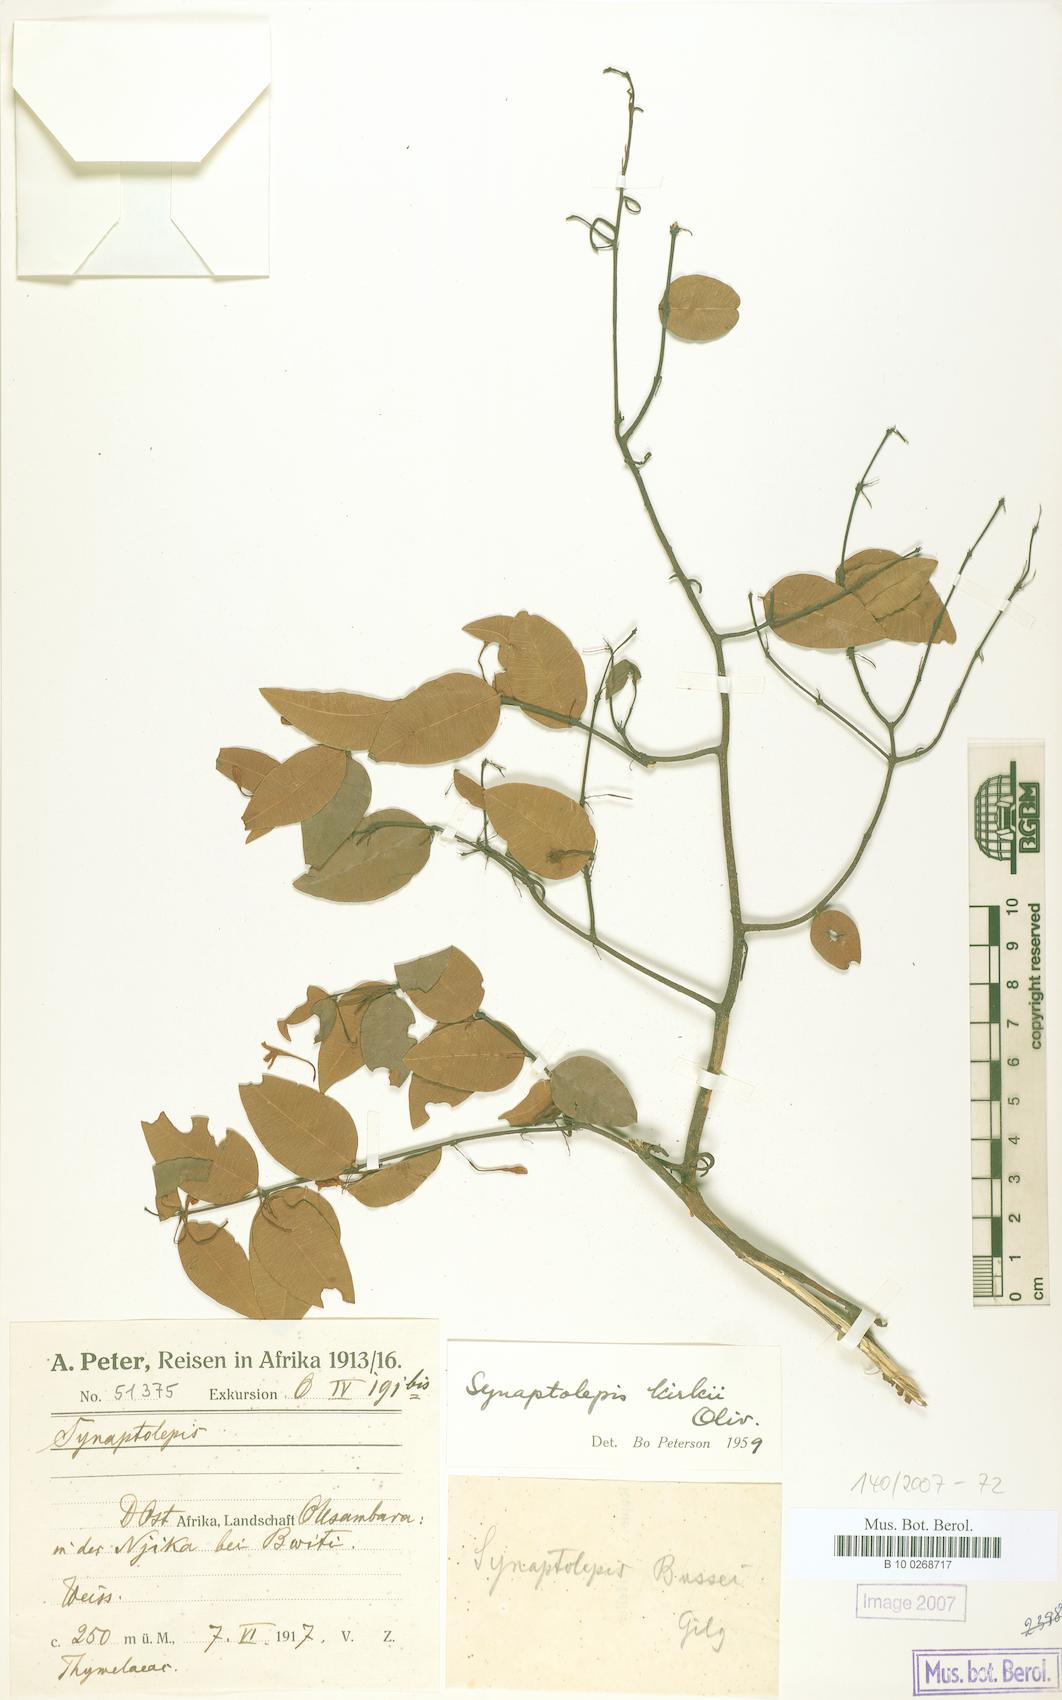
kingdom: Plantae
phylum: Tracheophyta
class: Magnoliopsida
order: Malvales
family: Thymelaeaceae
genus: Synaptolepis
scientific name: Synaptolepis kirkii
